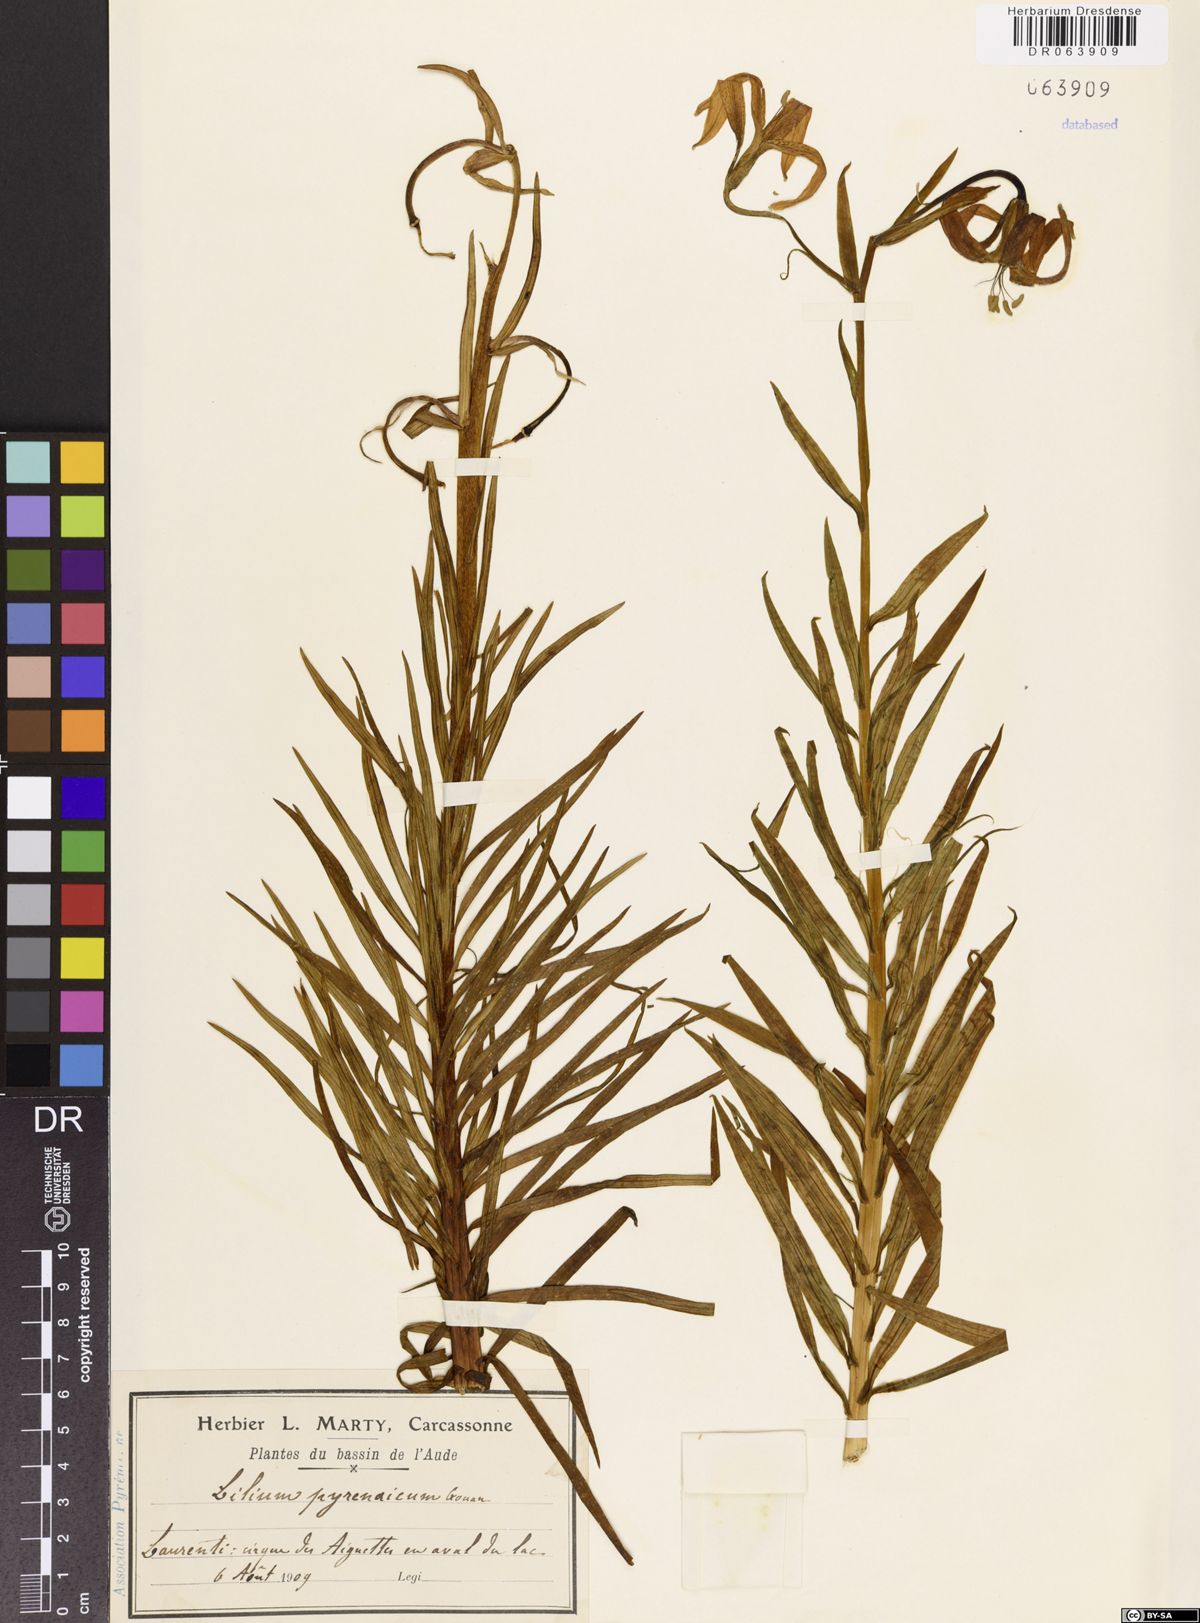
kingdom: Plantae
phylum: Tracheophyta
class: Liliopsida
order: Liliales
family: Liliaceae
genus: Lilium
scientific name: Lilium pyrenaicum
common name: Pyrenean lily
